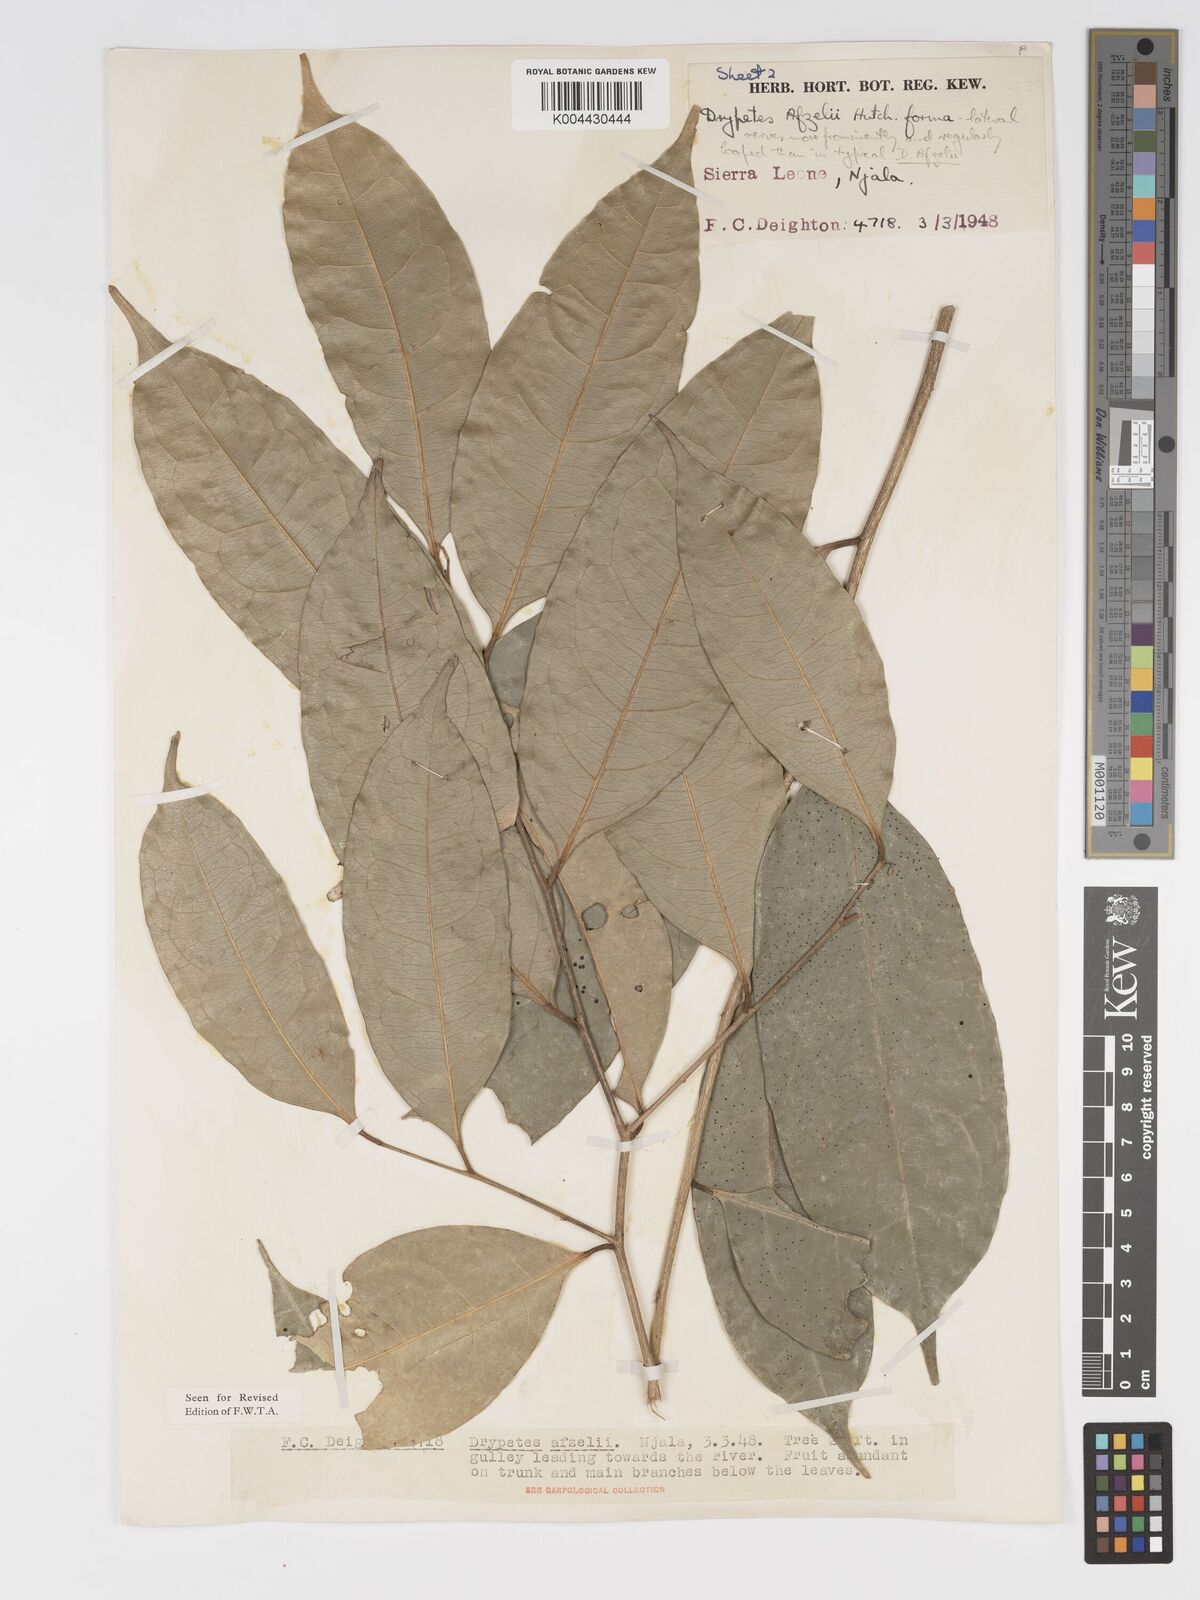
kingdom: Plantae
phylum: Tracheophyta
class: Magnoliopsida
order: Malpighiales
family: Putranjivaceae
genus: Drypetes
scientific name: Drypetes afzelii
